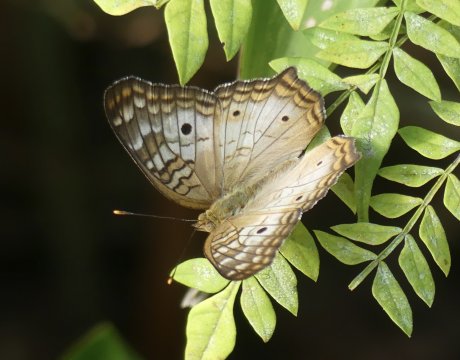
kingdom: Animalia
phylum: Arthropoda
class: Insecta
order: Lepidoptera
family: Nymphalidae
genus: Anartia
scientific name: Anartia jatrophae
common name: White Peacock
